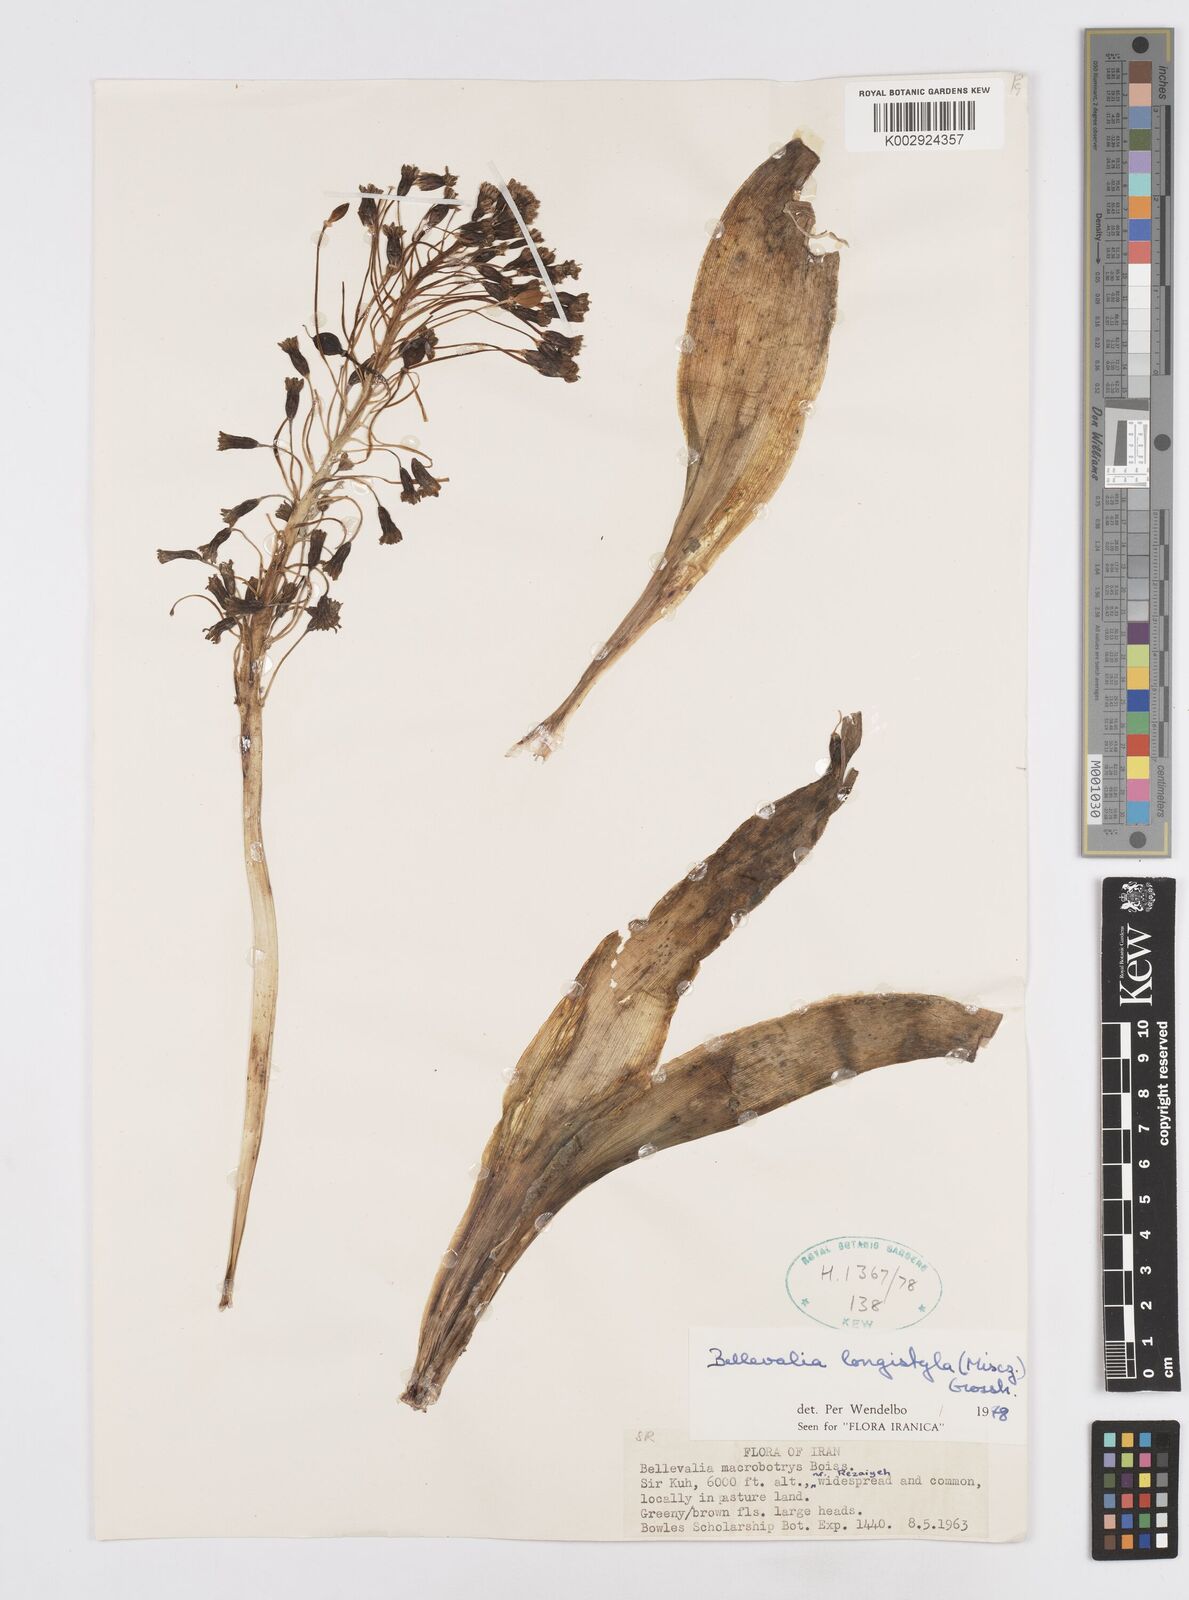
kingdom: Plantae
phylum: Tracheophyta
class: Liliopsida
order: Asparagales
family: Asparagaceae
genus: Bellevalia
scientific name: Bellevalia longistyla
